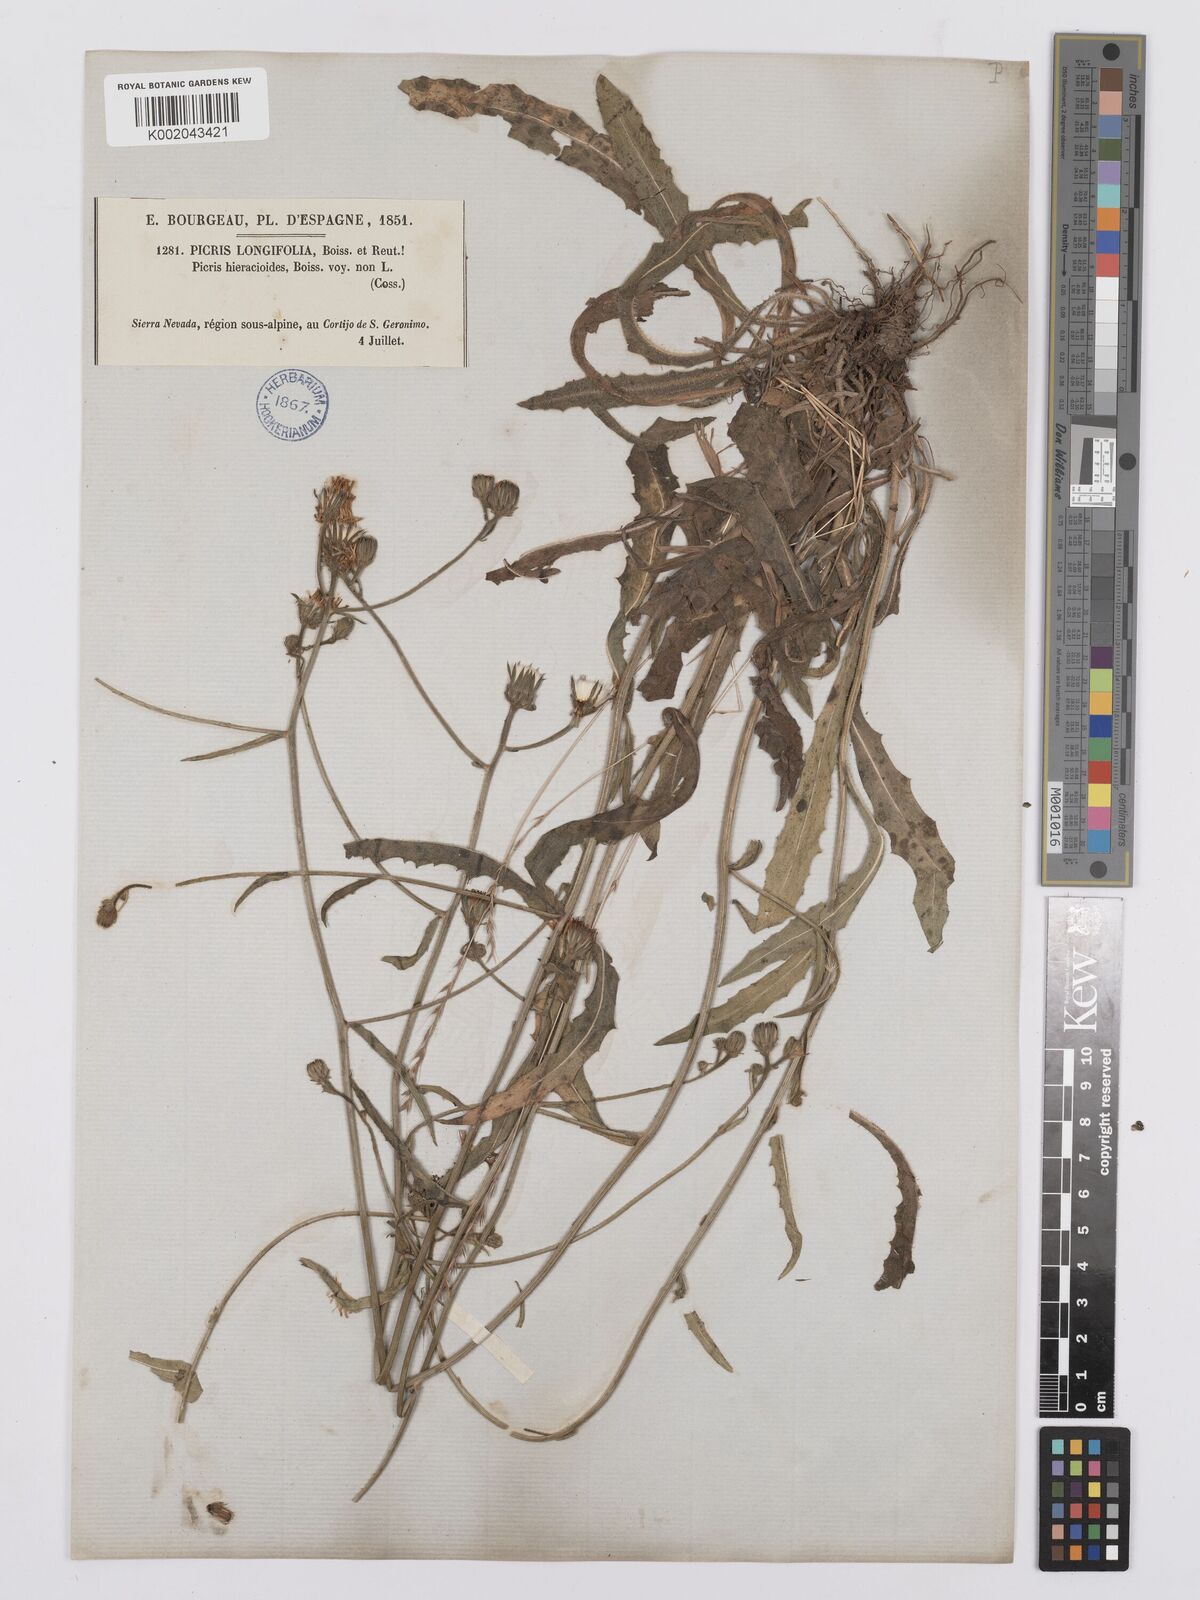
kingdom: Plantae
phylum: Tracheophyta
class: Magnoliopsida
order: Asterales
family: Asteraceae
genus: Picris
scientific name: Picris hieracioides
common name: Hawkweed oxtongue
